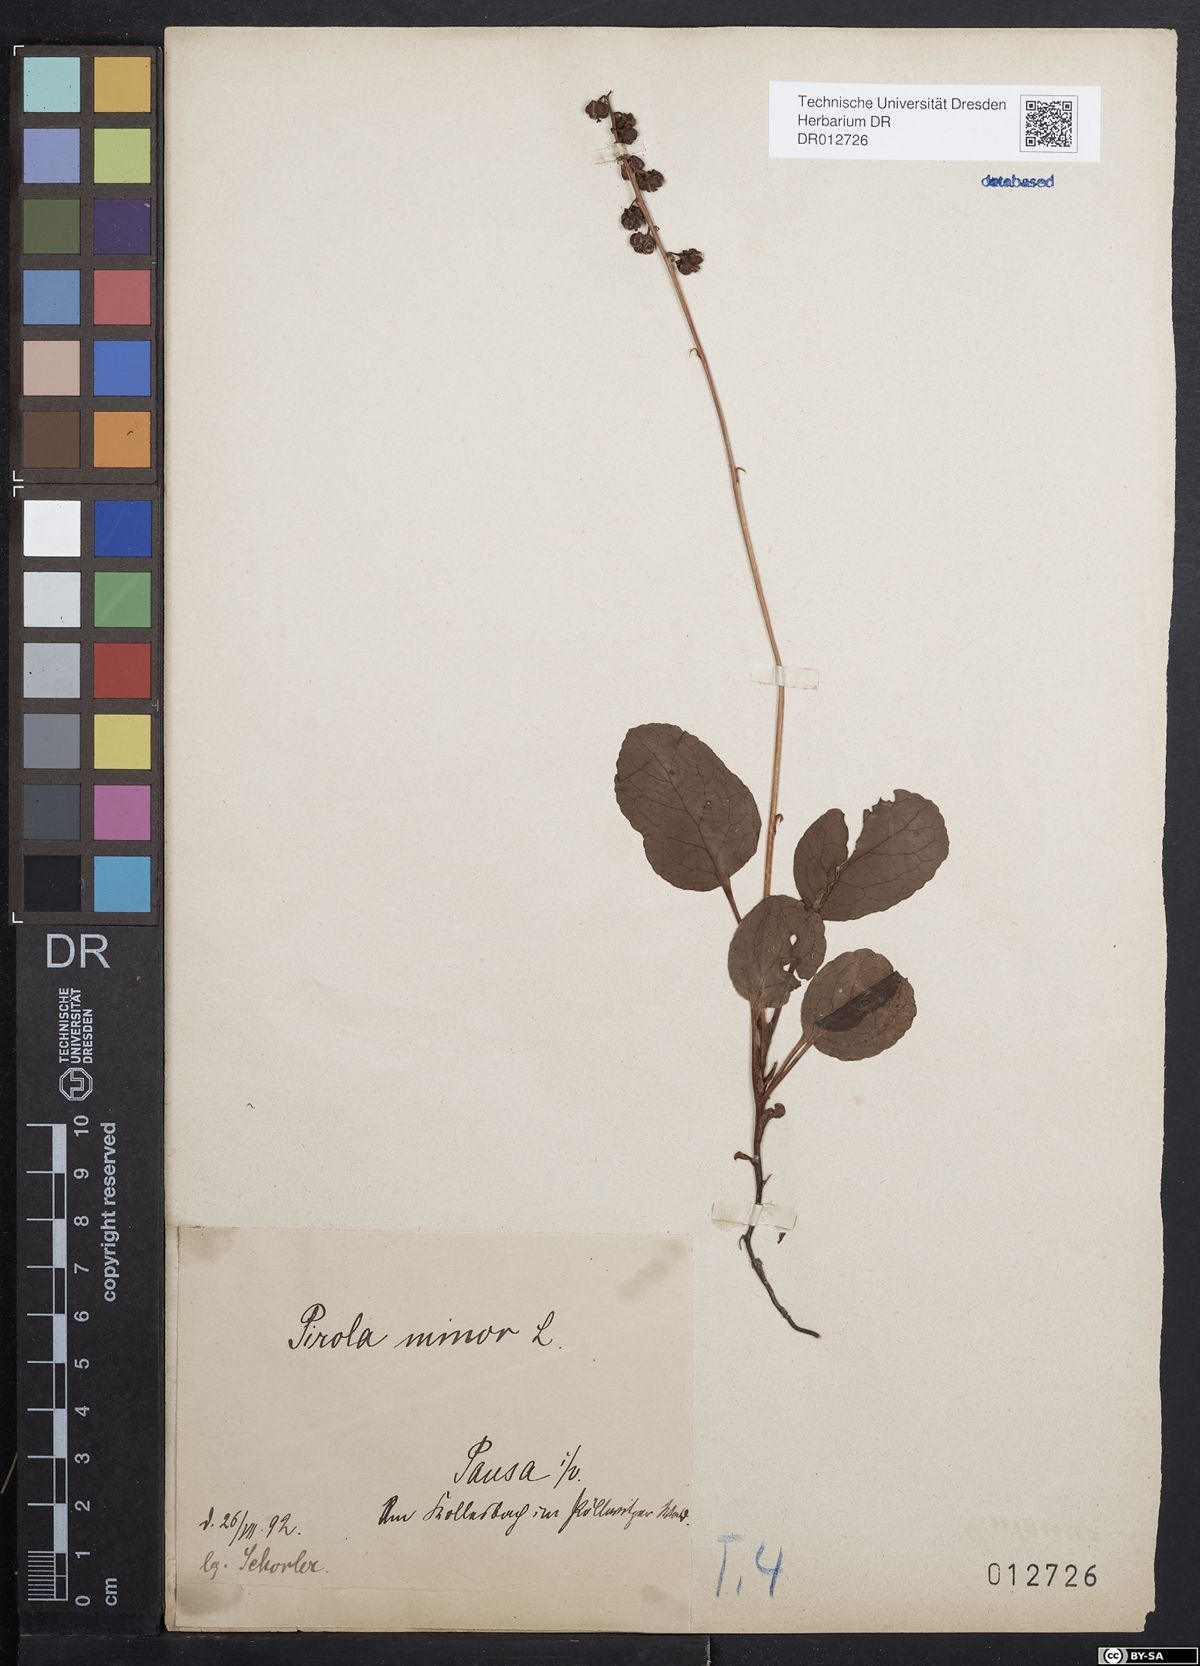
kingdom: Plantae
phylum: Tracheophyta
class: Magnoliopsida
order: Ericales
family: Ericaceae
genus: Pyrola
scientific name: Pyrola minor
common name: Common wintergreen
